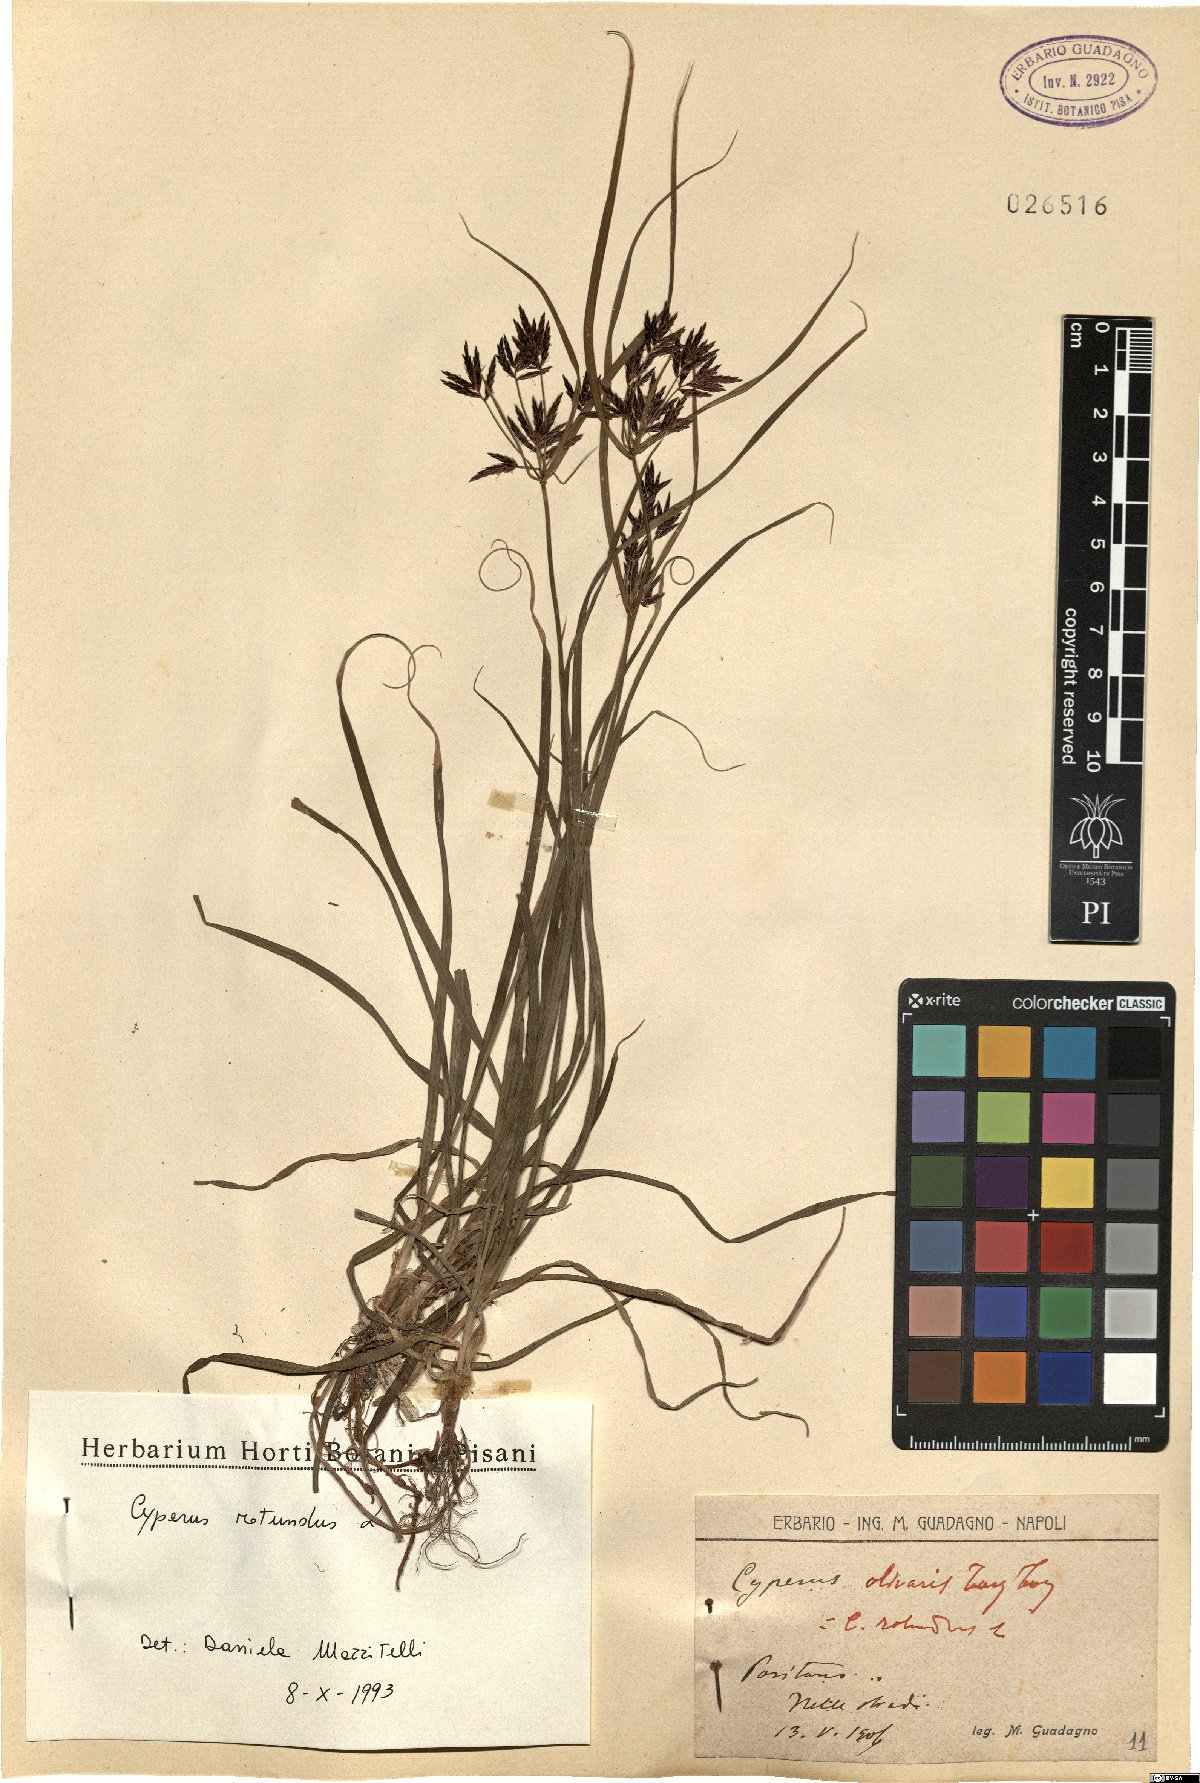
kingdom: Plantae
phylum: Tracheophyta
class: Liliopsida
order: Poales
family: Cyperaceae
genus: Cyperus
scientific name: Cyperus rotundus
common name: Nutgrass
